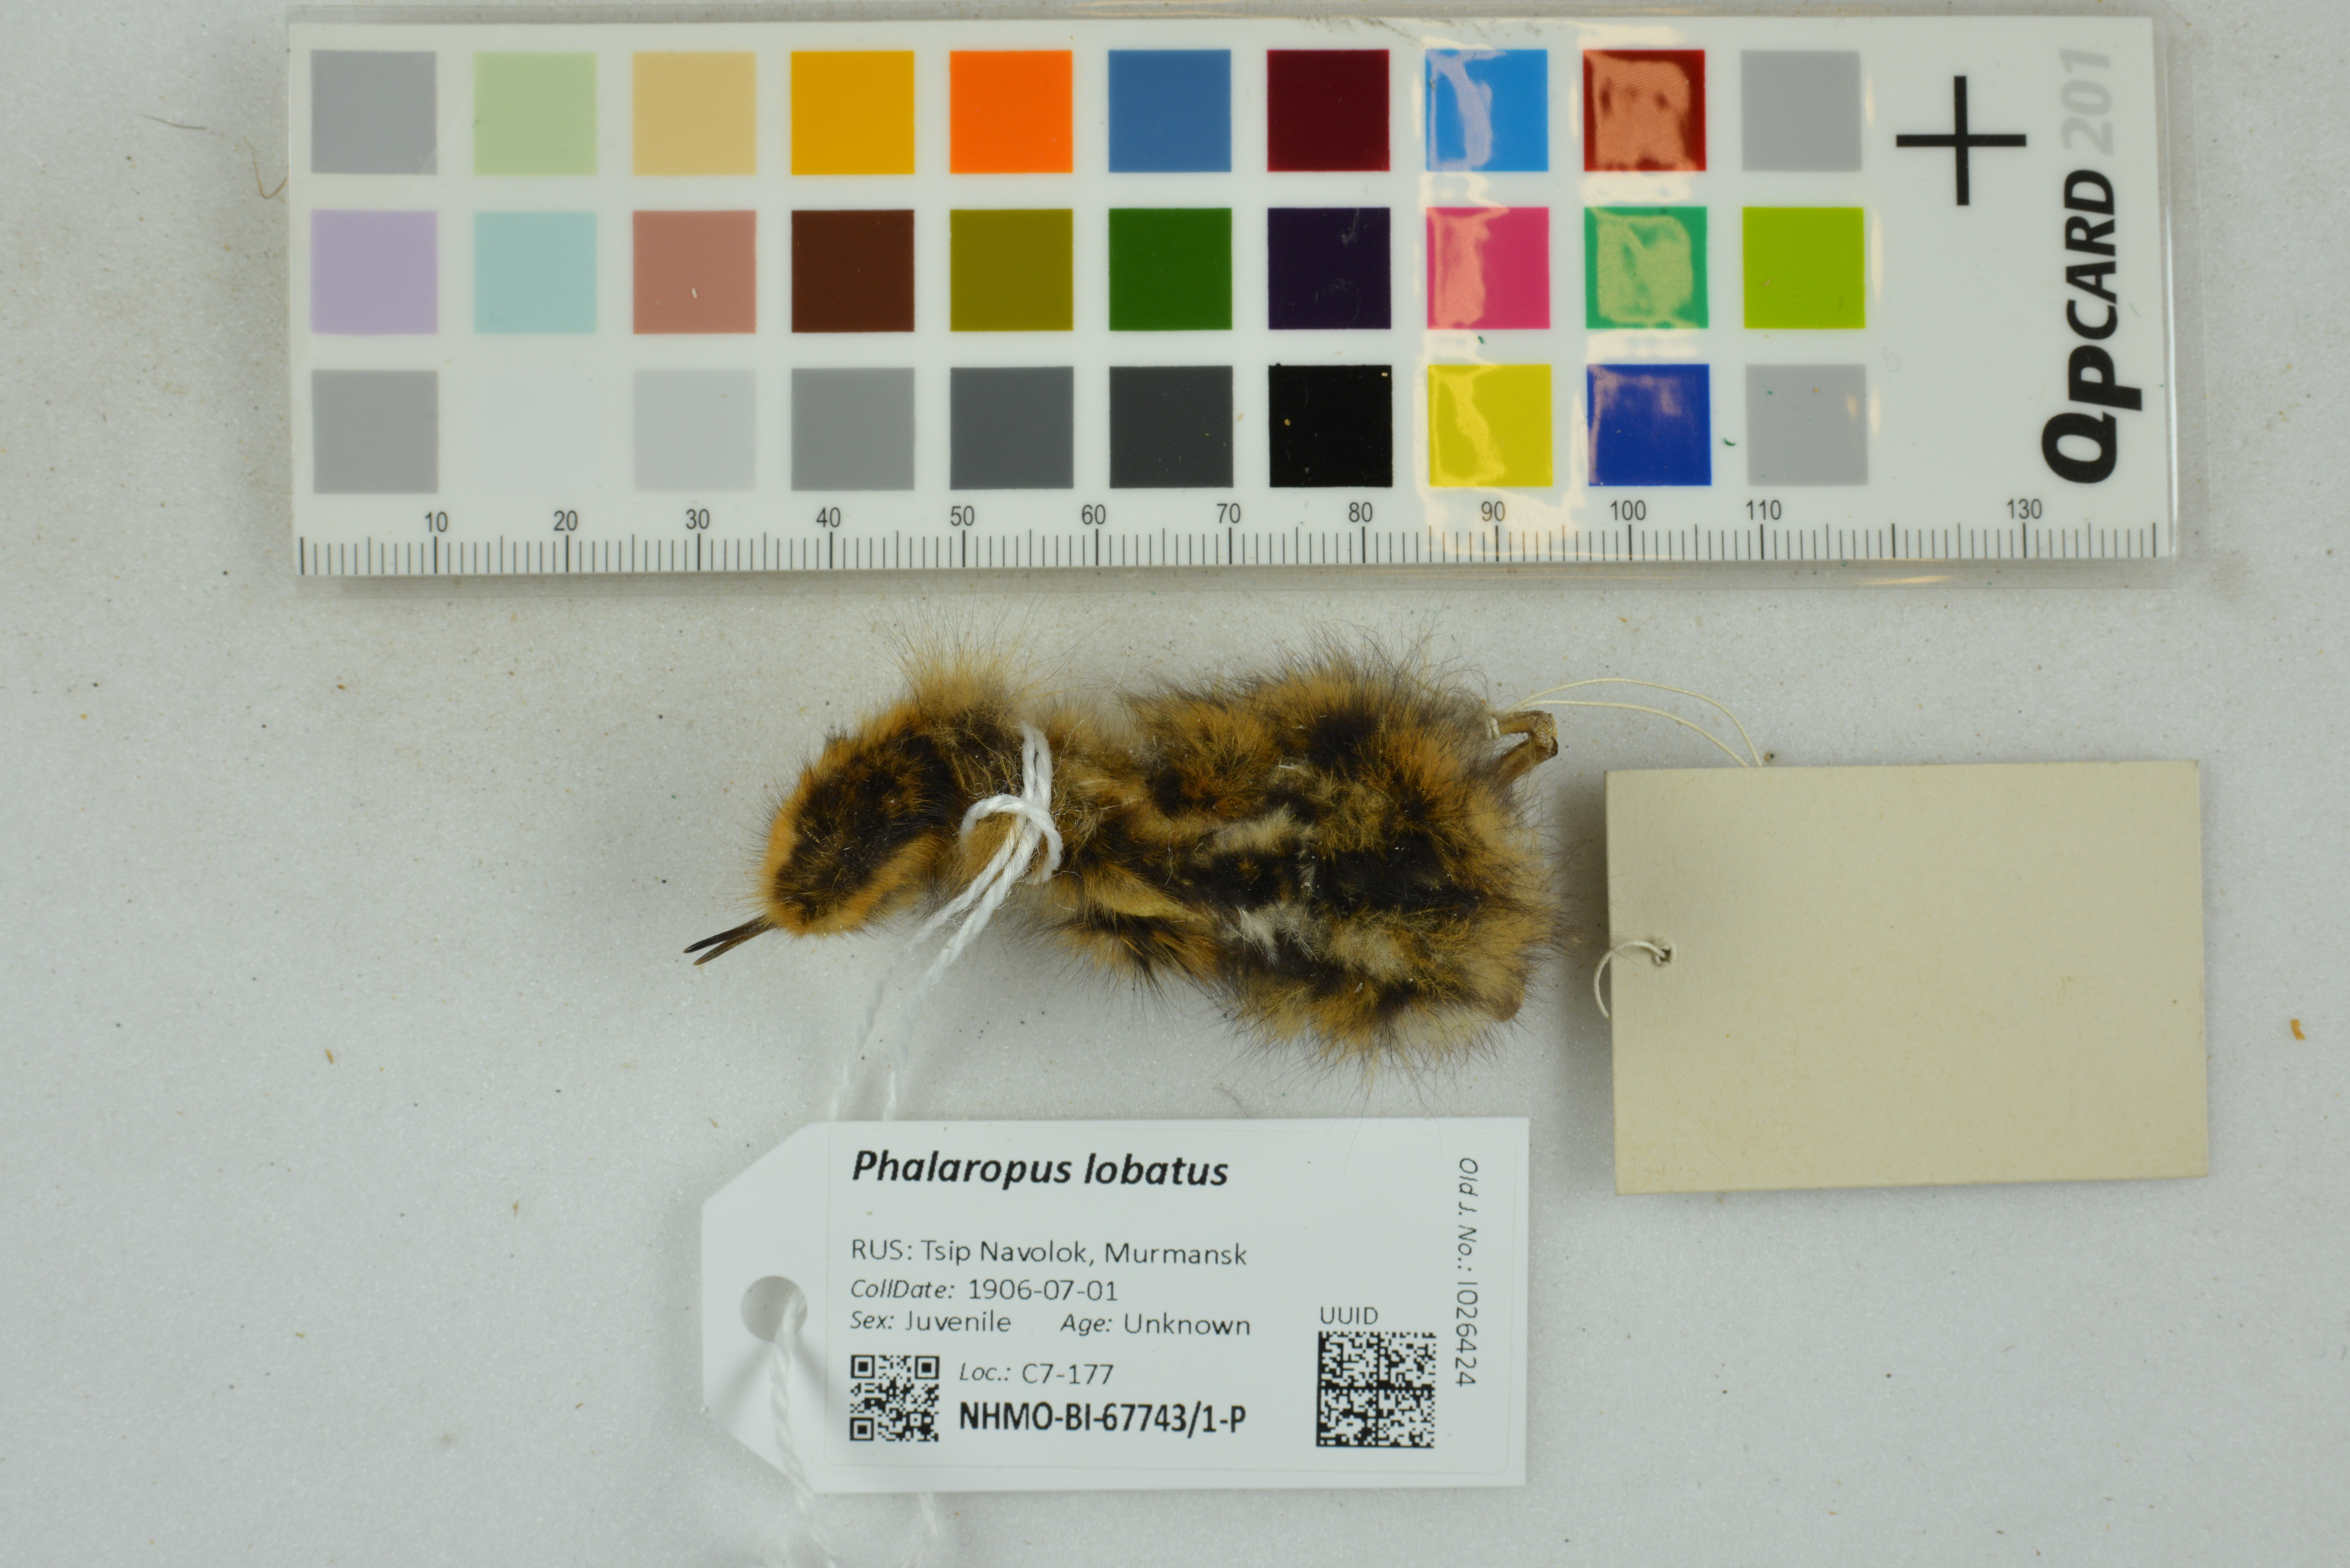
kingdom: Animalia
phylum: Chordata
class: Aves
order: Charadriiformes
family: Scolopacidae
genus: Phalaropus
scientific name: Phalaropus lobatus
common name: Red-necked phalarope
